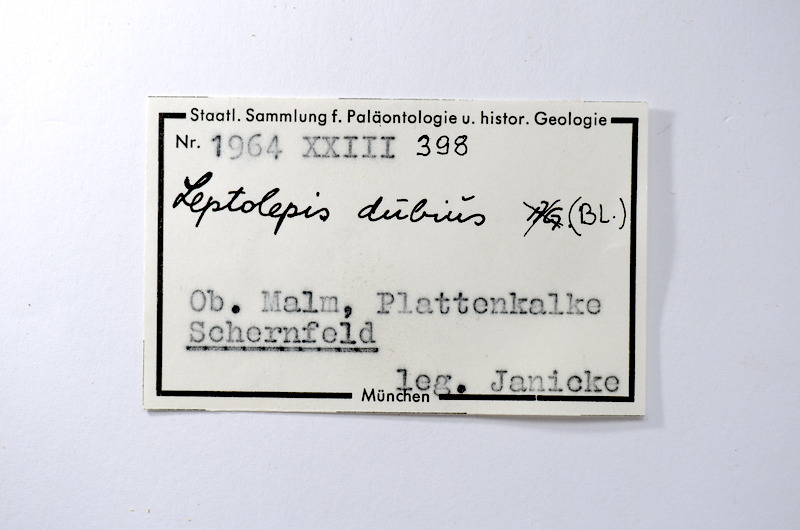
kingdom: Animalia
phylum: Chordata
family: Ascalaboidae
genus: Tharsis
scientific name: Tharsis dubius
